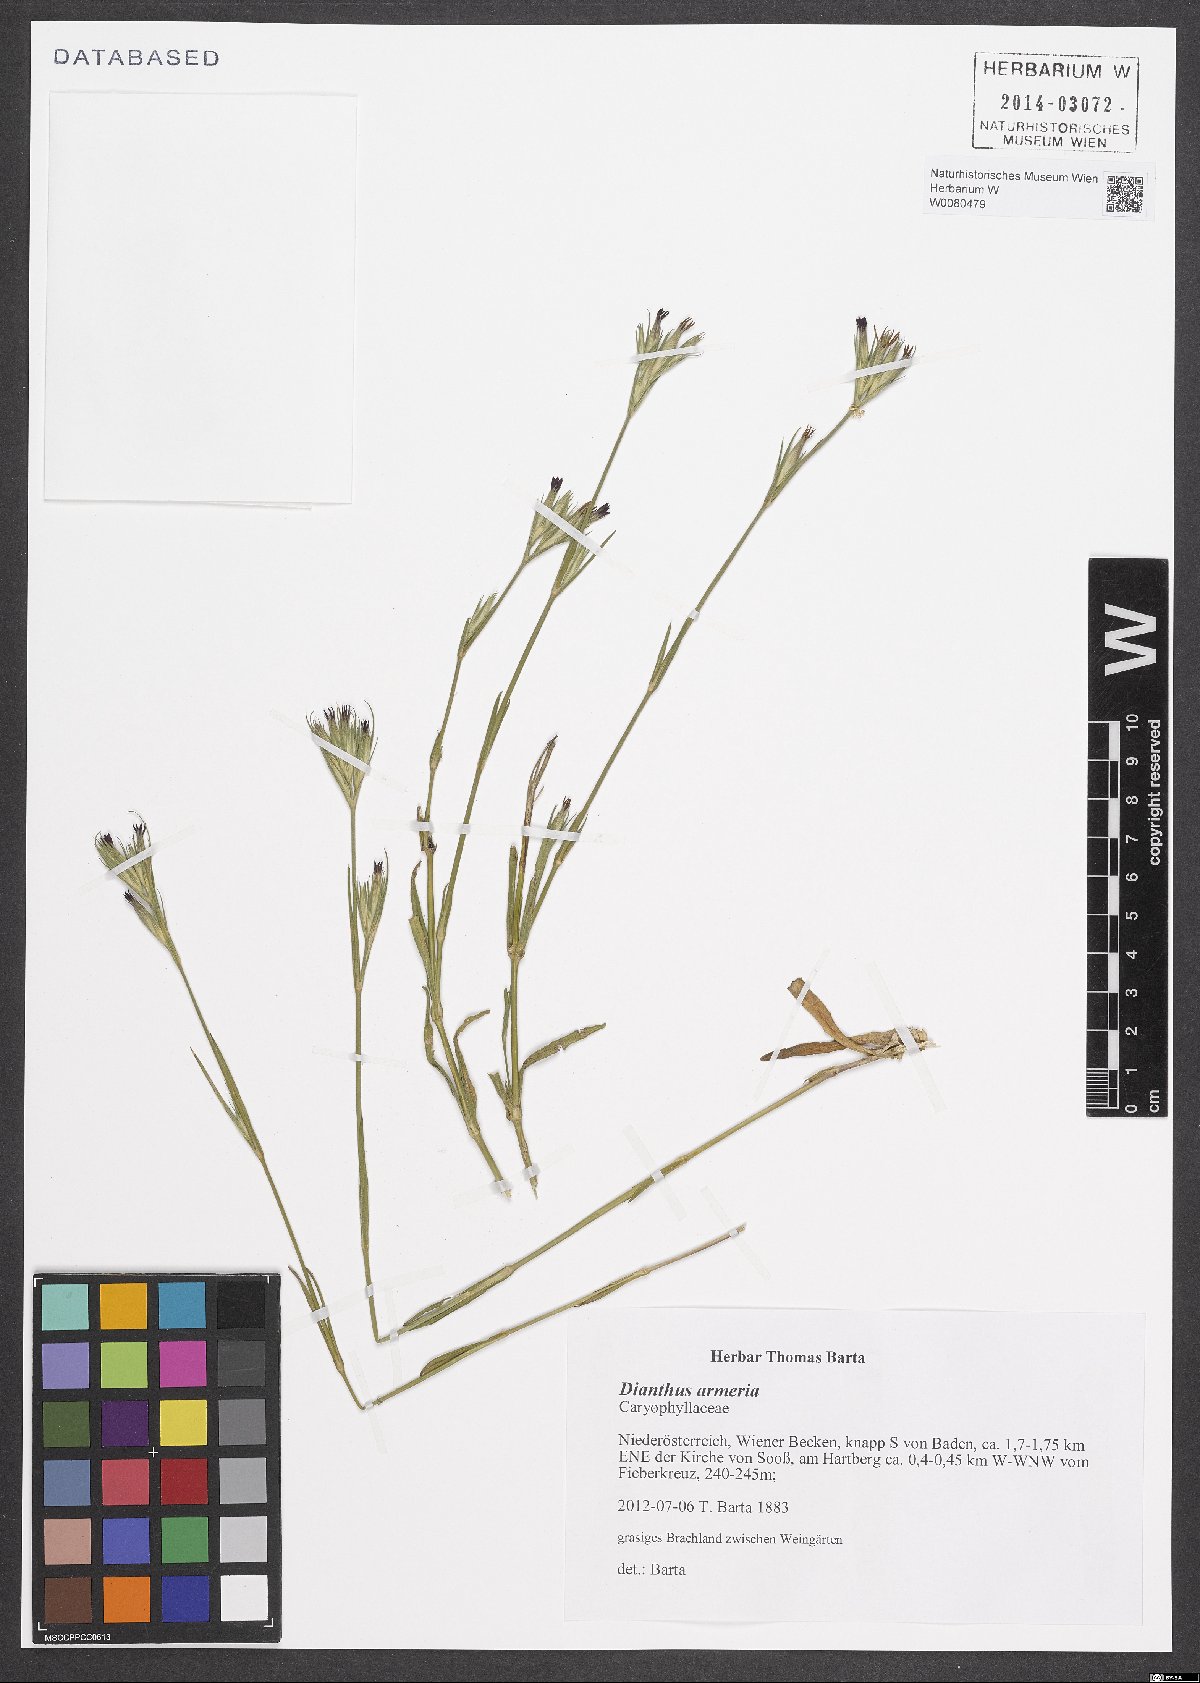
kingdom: Plantae
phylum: Tracheophyta
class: Magnoliopsida
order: Caryophyllales
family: Caryophyllaceae
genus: Dianthus
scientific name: Dianthus armeria
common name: Deptford pink
